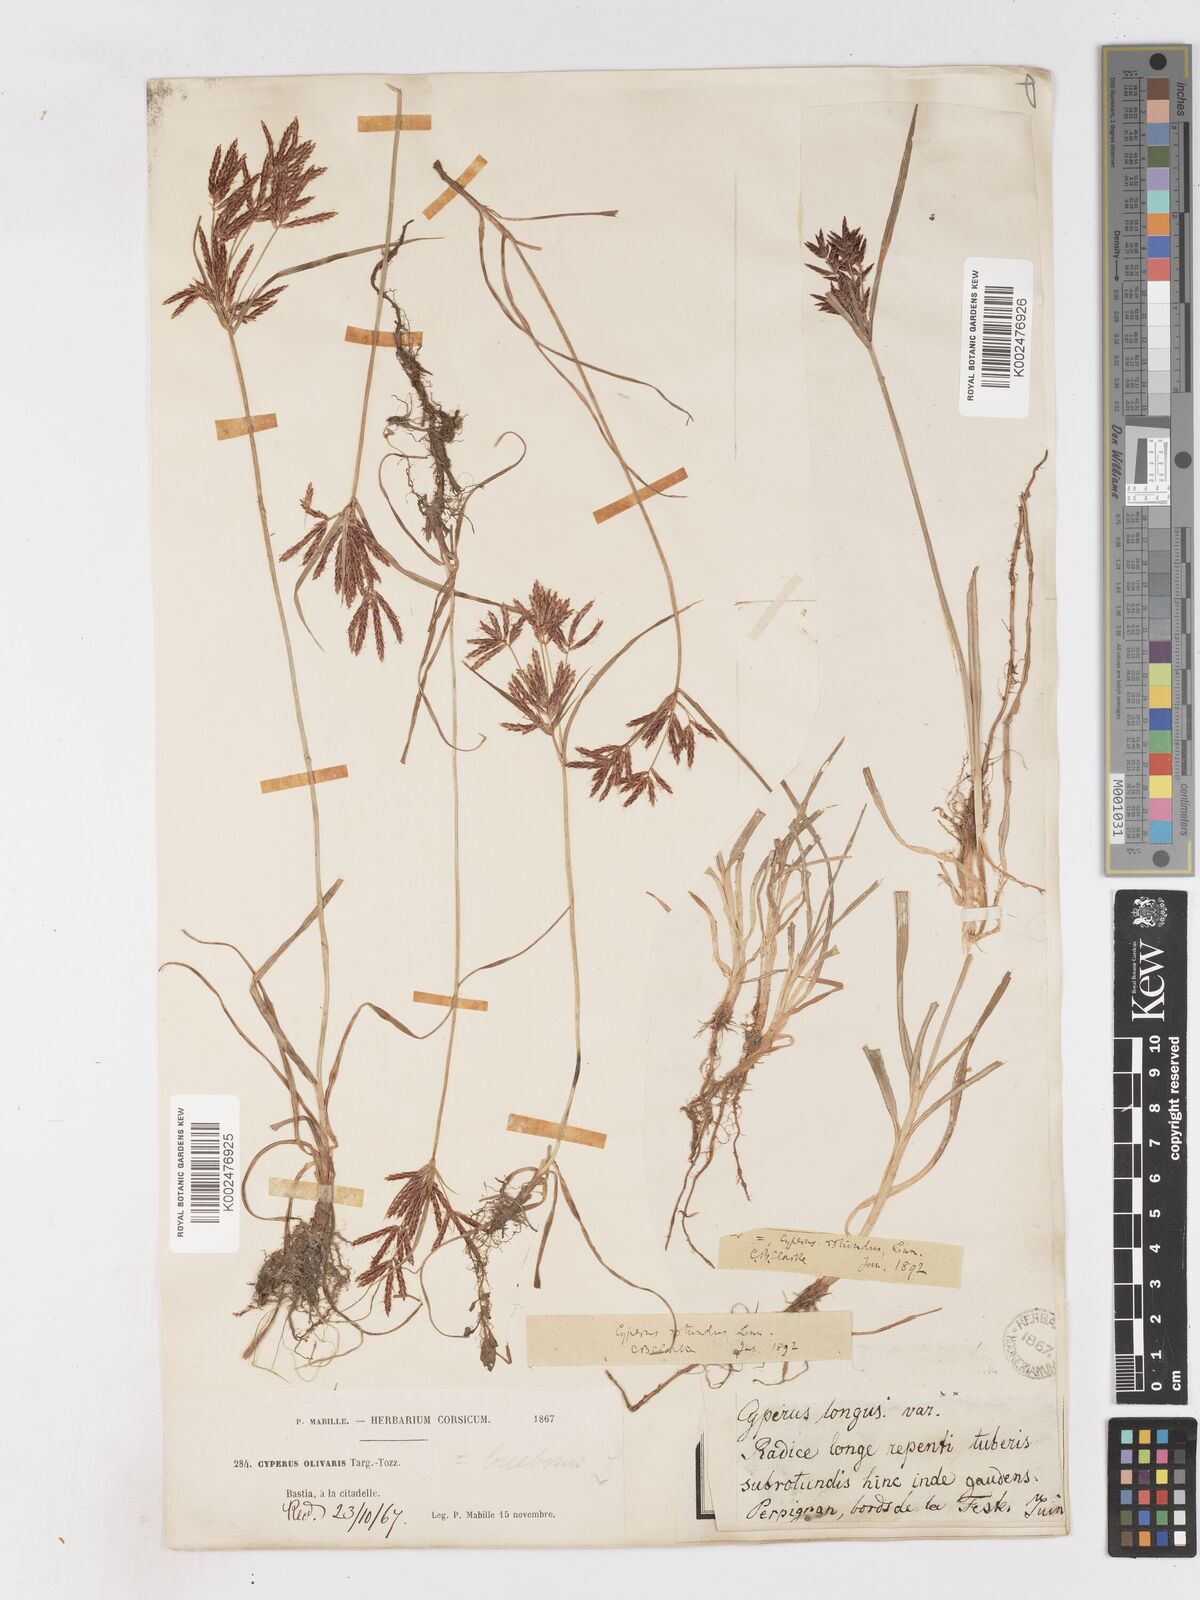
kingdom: Plantae
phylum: Tracheophyta
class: Liliopsida
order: Poales
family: Cyperaceae
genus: Cyperus
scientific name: Cyperus rotundus
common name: Nutgrass
